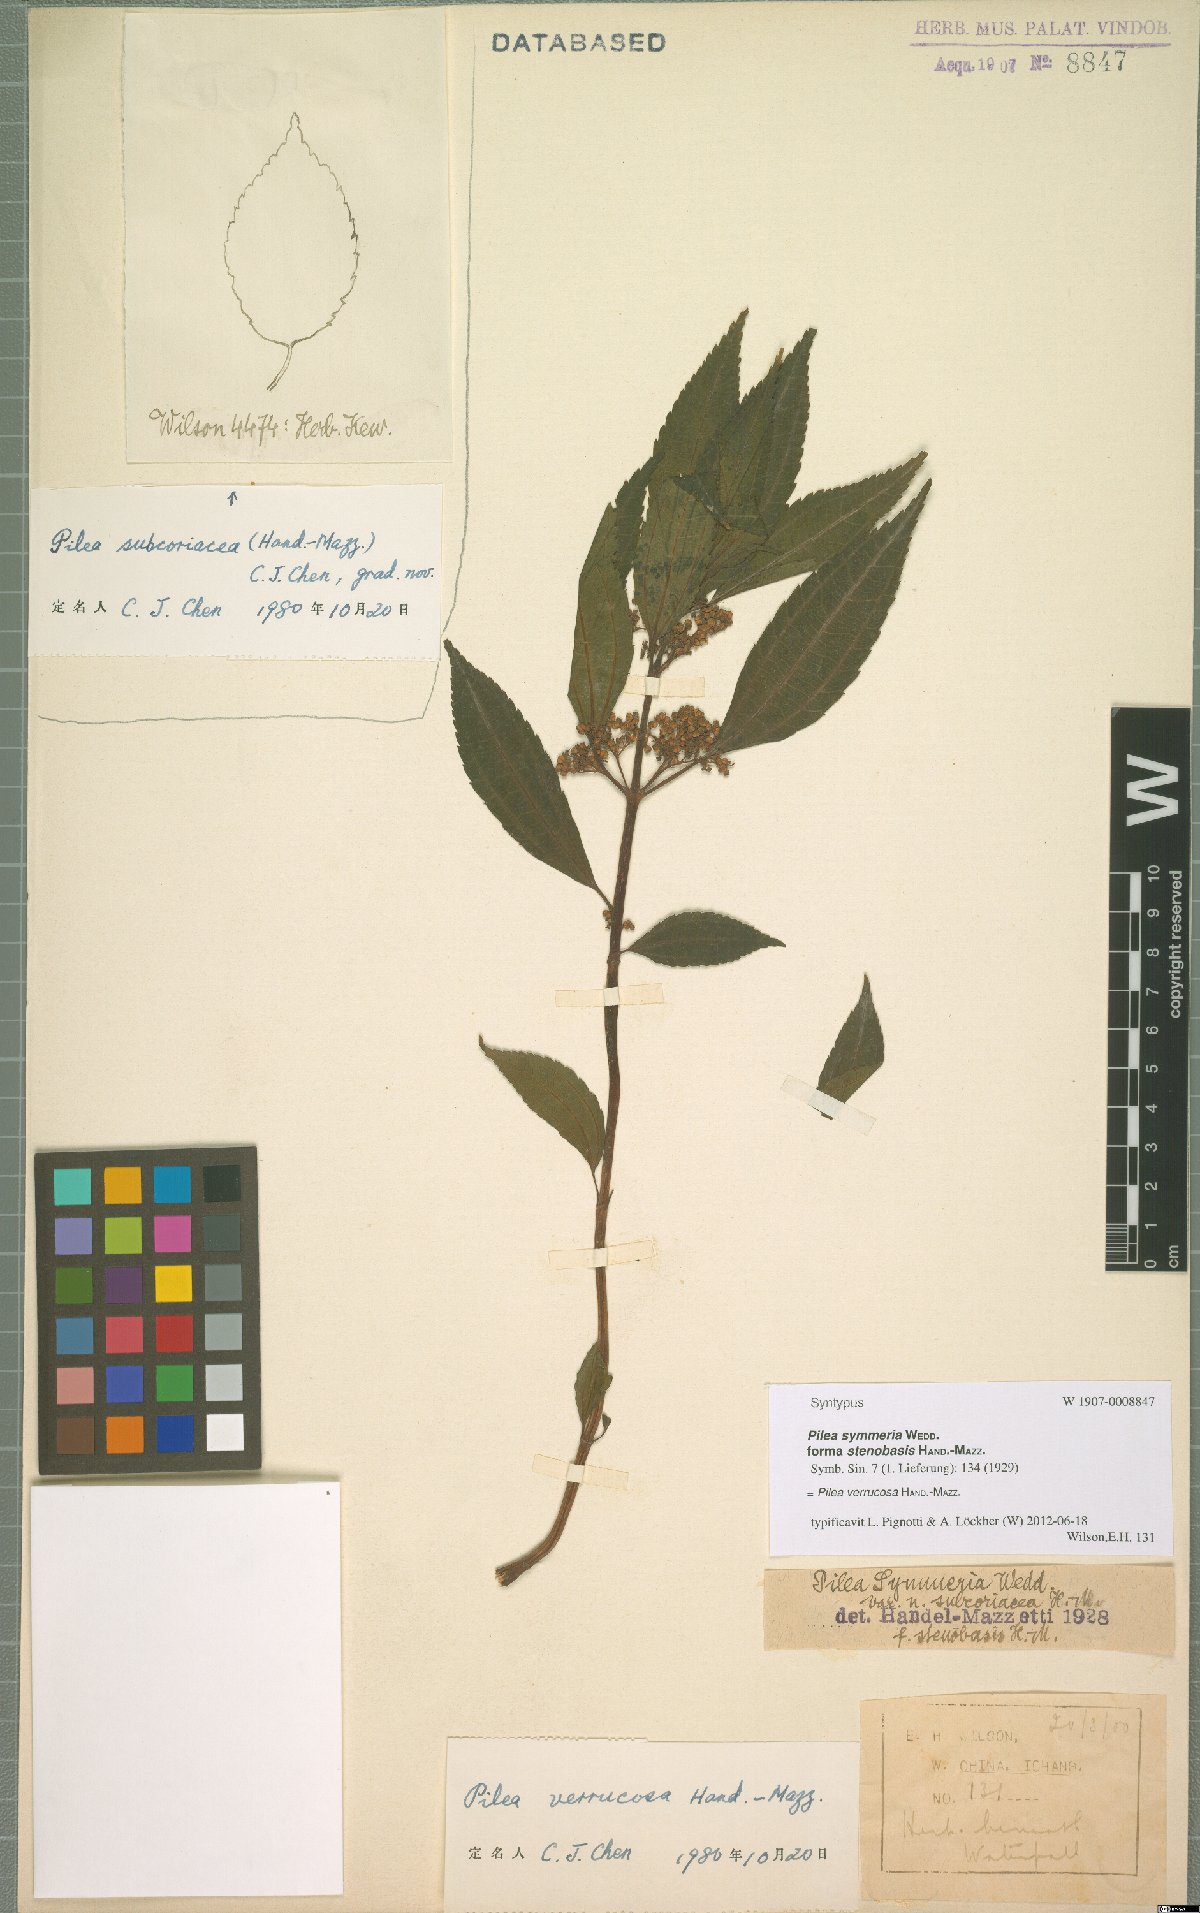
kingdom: Plantae
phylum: Tracheophyta
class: Magnoliopsida
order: Rosales
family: Urticaceae
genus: Pilea
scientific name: Pilea gracilis
